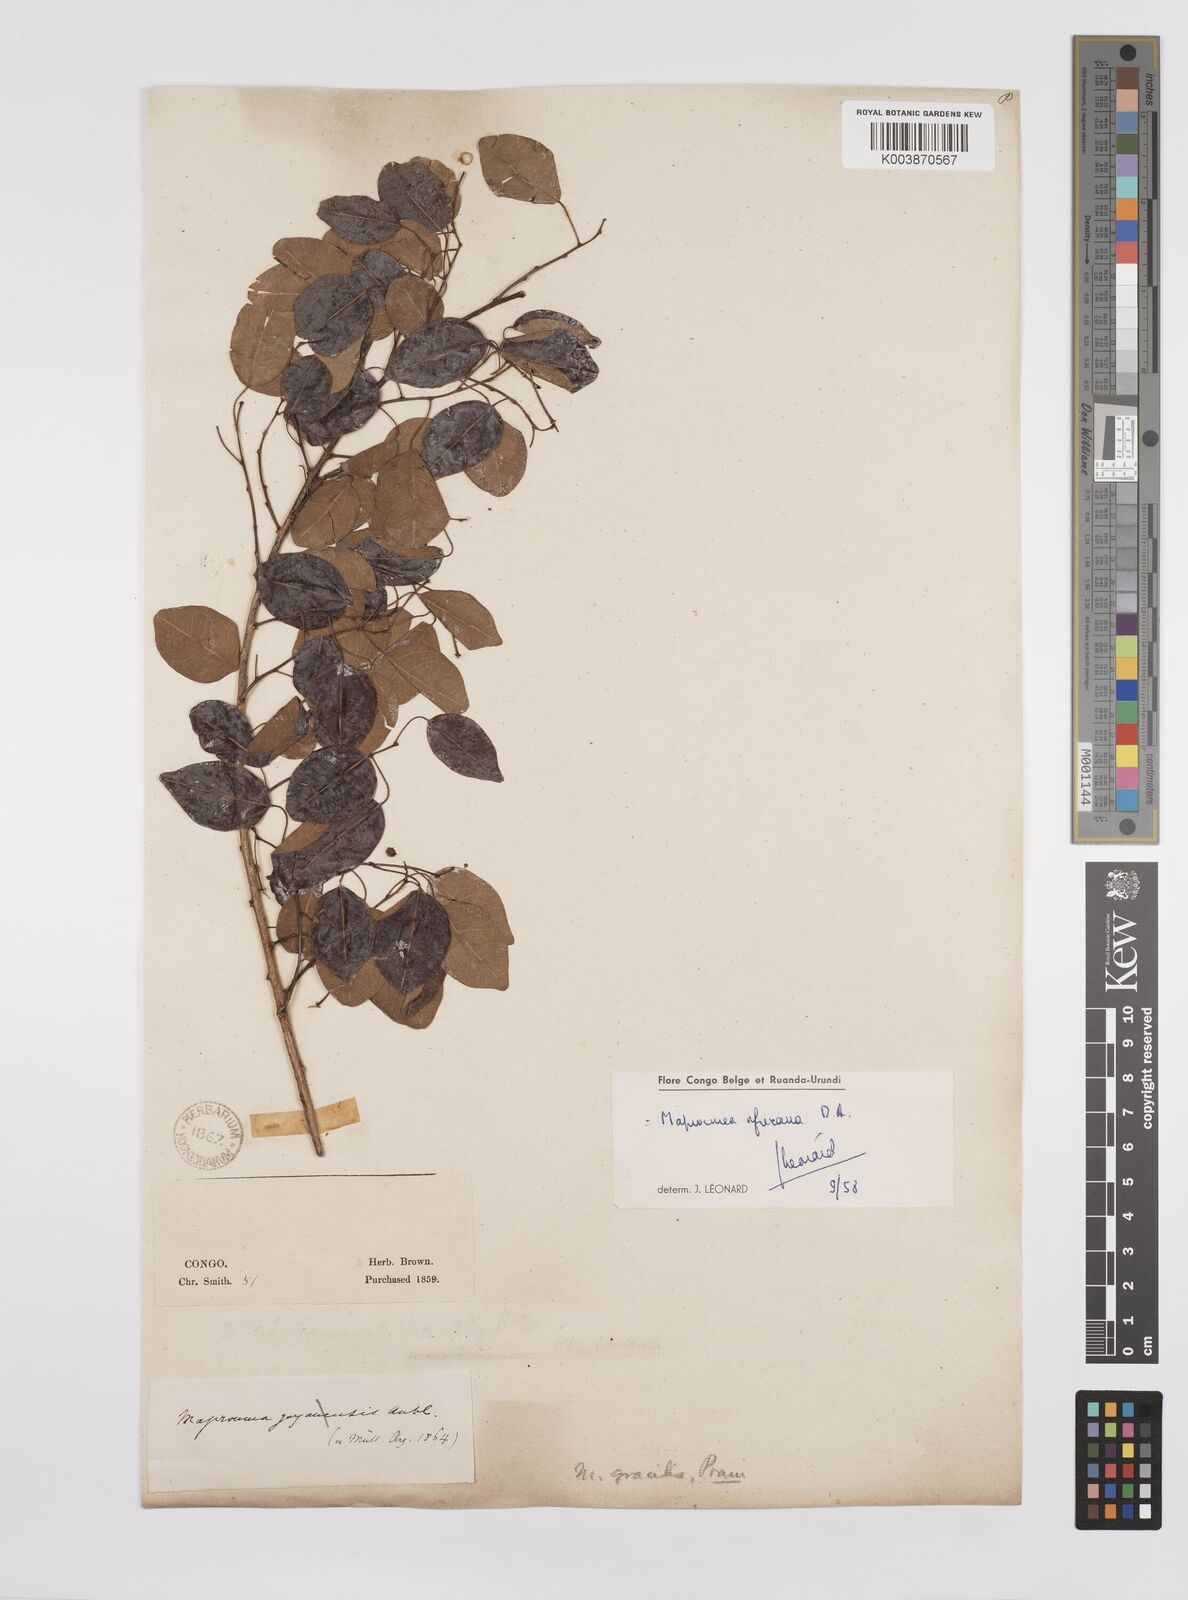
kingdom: Plantae
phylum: Tracheophyta
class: Magnoliopsida
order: Malpighiales
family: Euphorbiaceae
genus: Maprounea
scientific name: Maprounea africana
